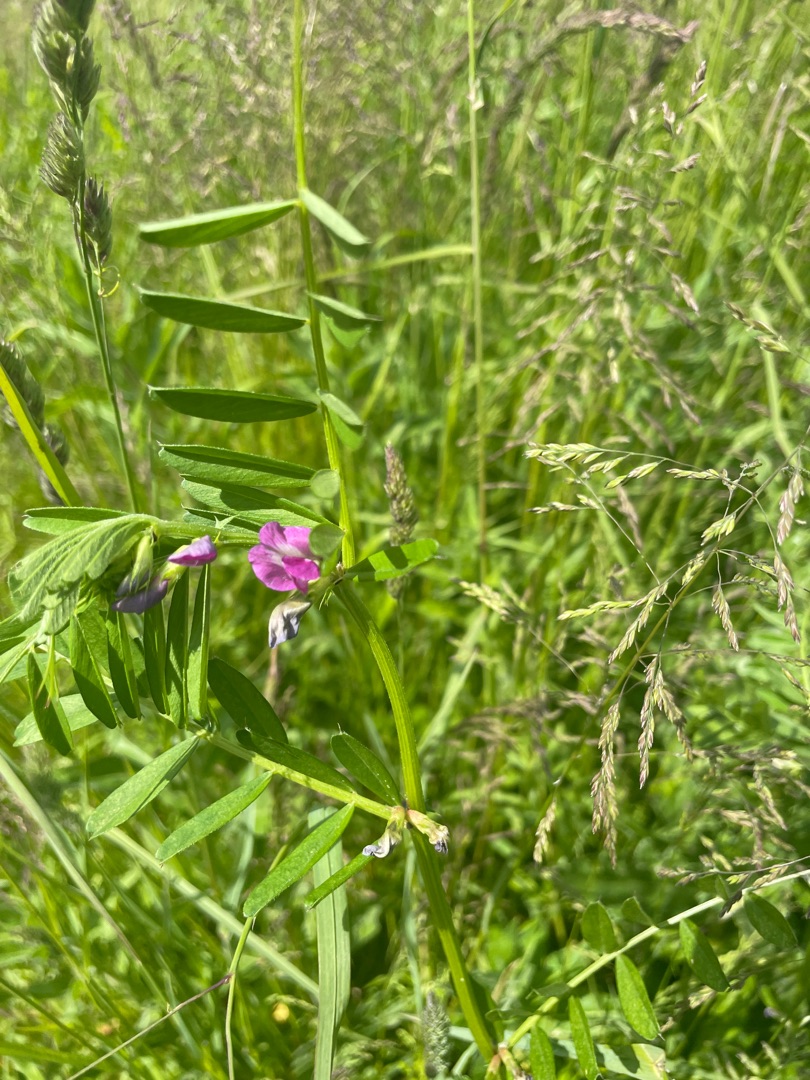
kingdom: Plantae
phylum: Tracheophyta
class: Magnoliopsida
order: Fabales
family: Fabaceae
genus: Vicia
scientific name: Vicia sativa
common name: Foder-vikke
